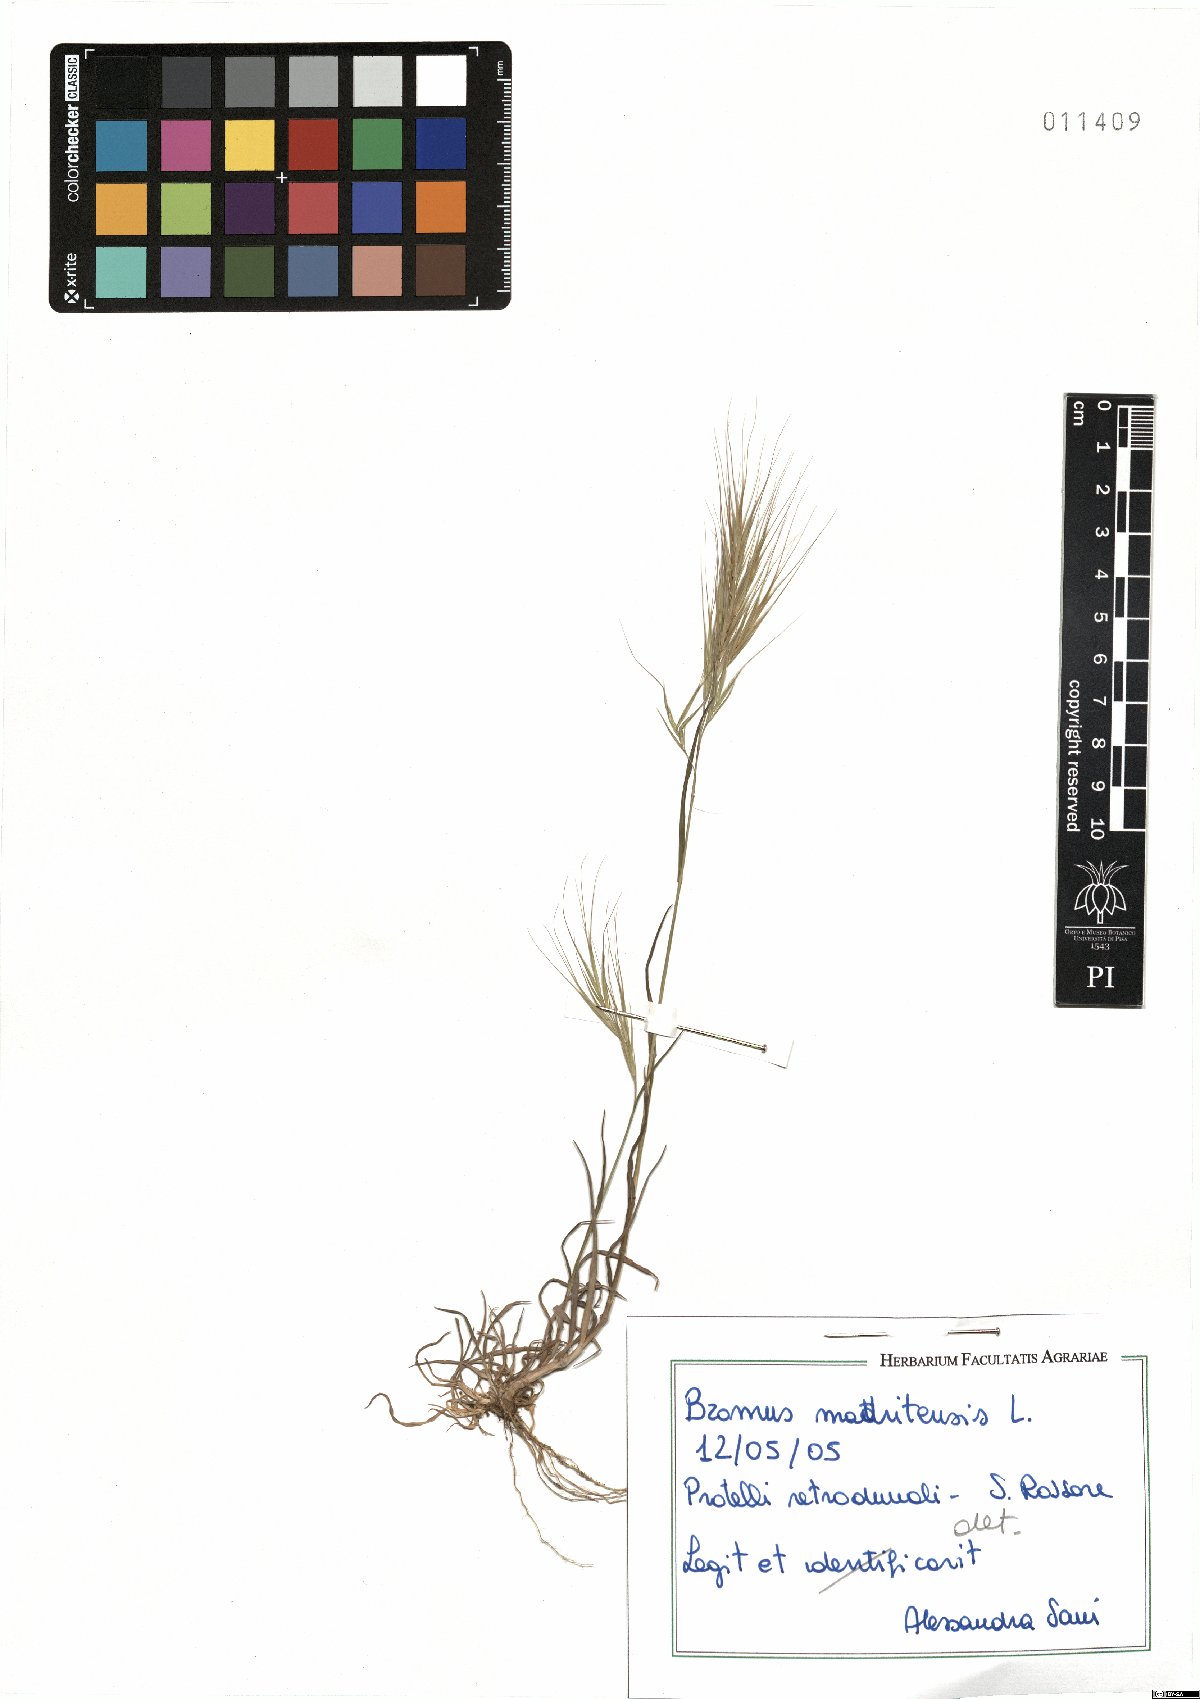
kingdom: Plantae
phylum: Tracheophyta
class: Liliopsida
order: Poales
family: Poaceae
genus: Bromus
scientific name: Bromus madritensis
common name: Compact brome
